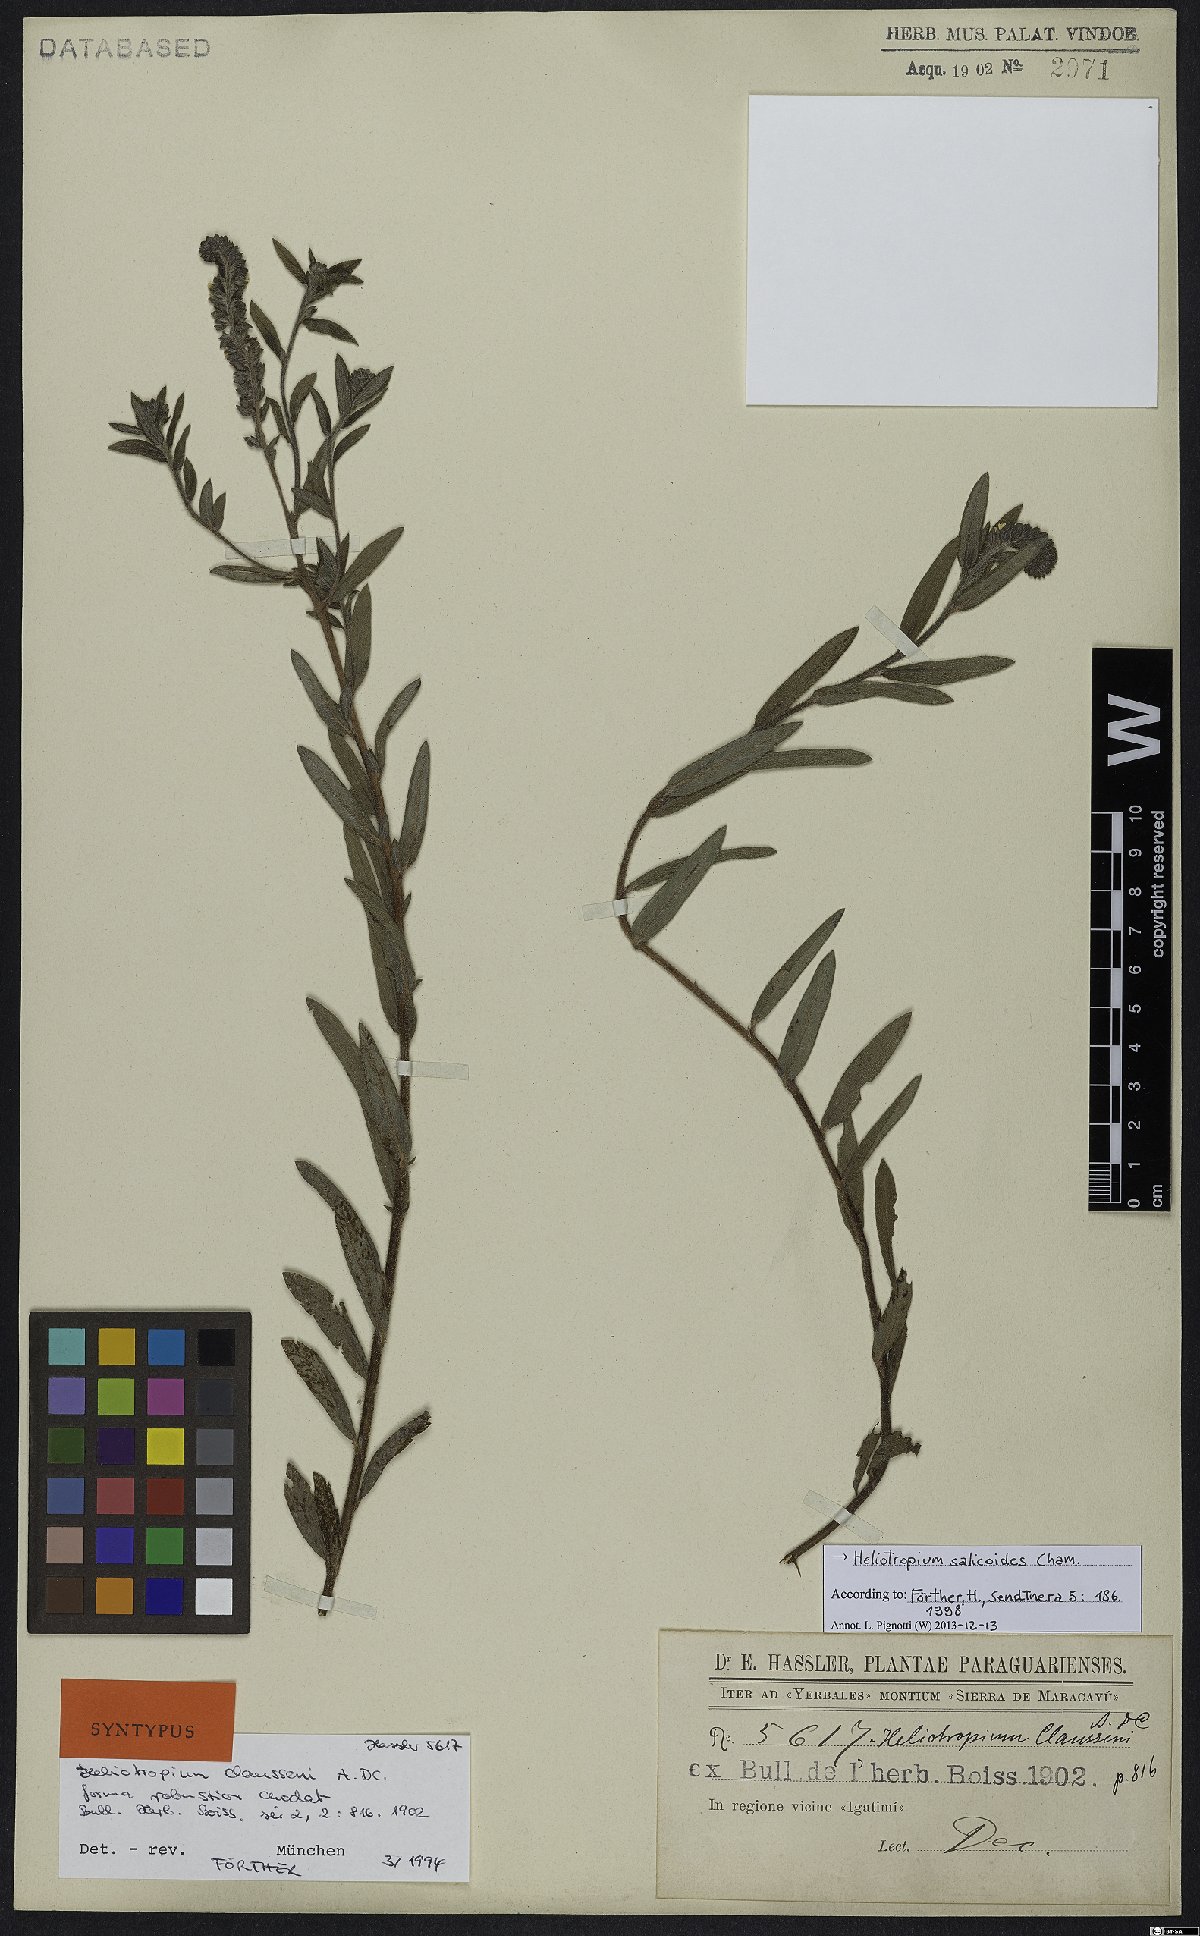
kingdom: Plantae
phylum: Tracheophyta
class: Magnoliopsida
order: Boraginales
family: Heliotropiaceae
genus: Euploca
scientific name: Euploca salicoides
